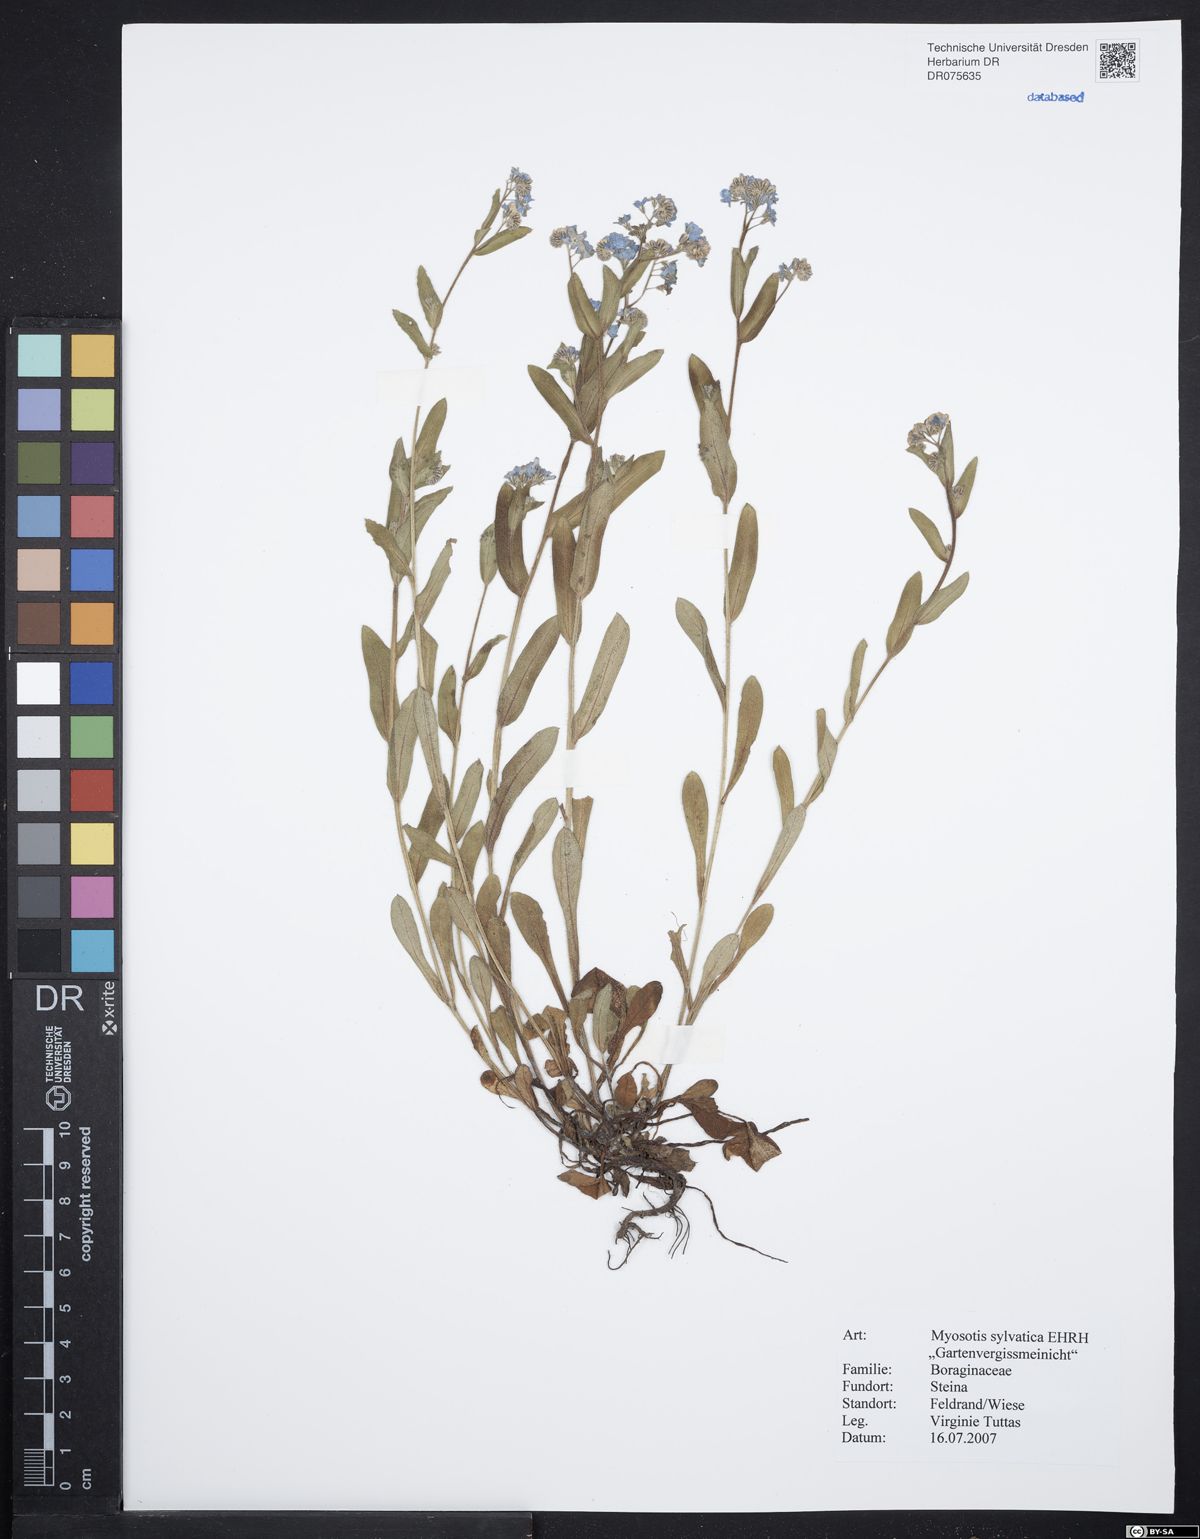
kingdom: Plantae
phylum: Tracheophyta
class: Magnoliopsida
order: Boraginales
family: Boraginaceae
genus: Myosotis
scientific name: Myosotis sylvatica
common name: Wood forget-me-not
